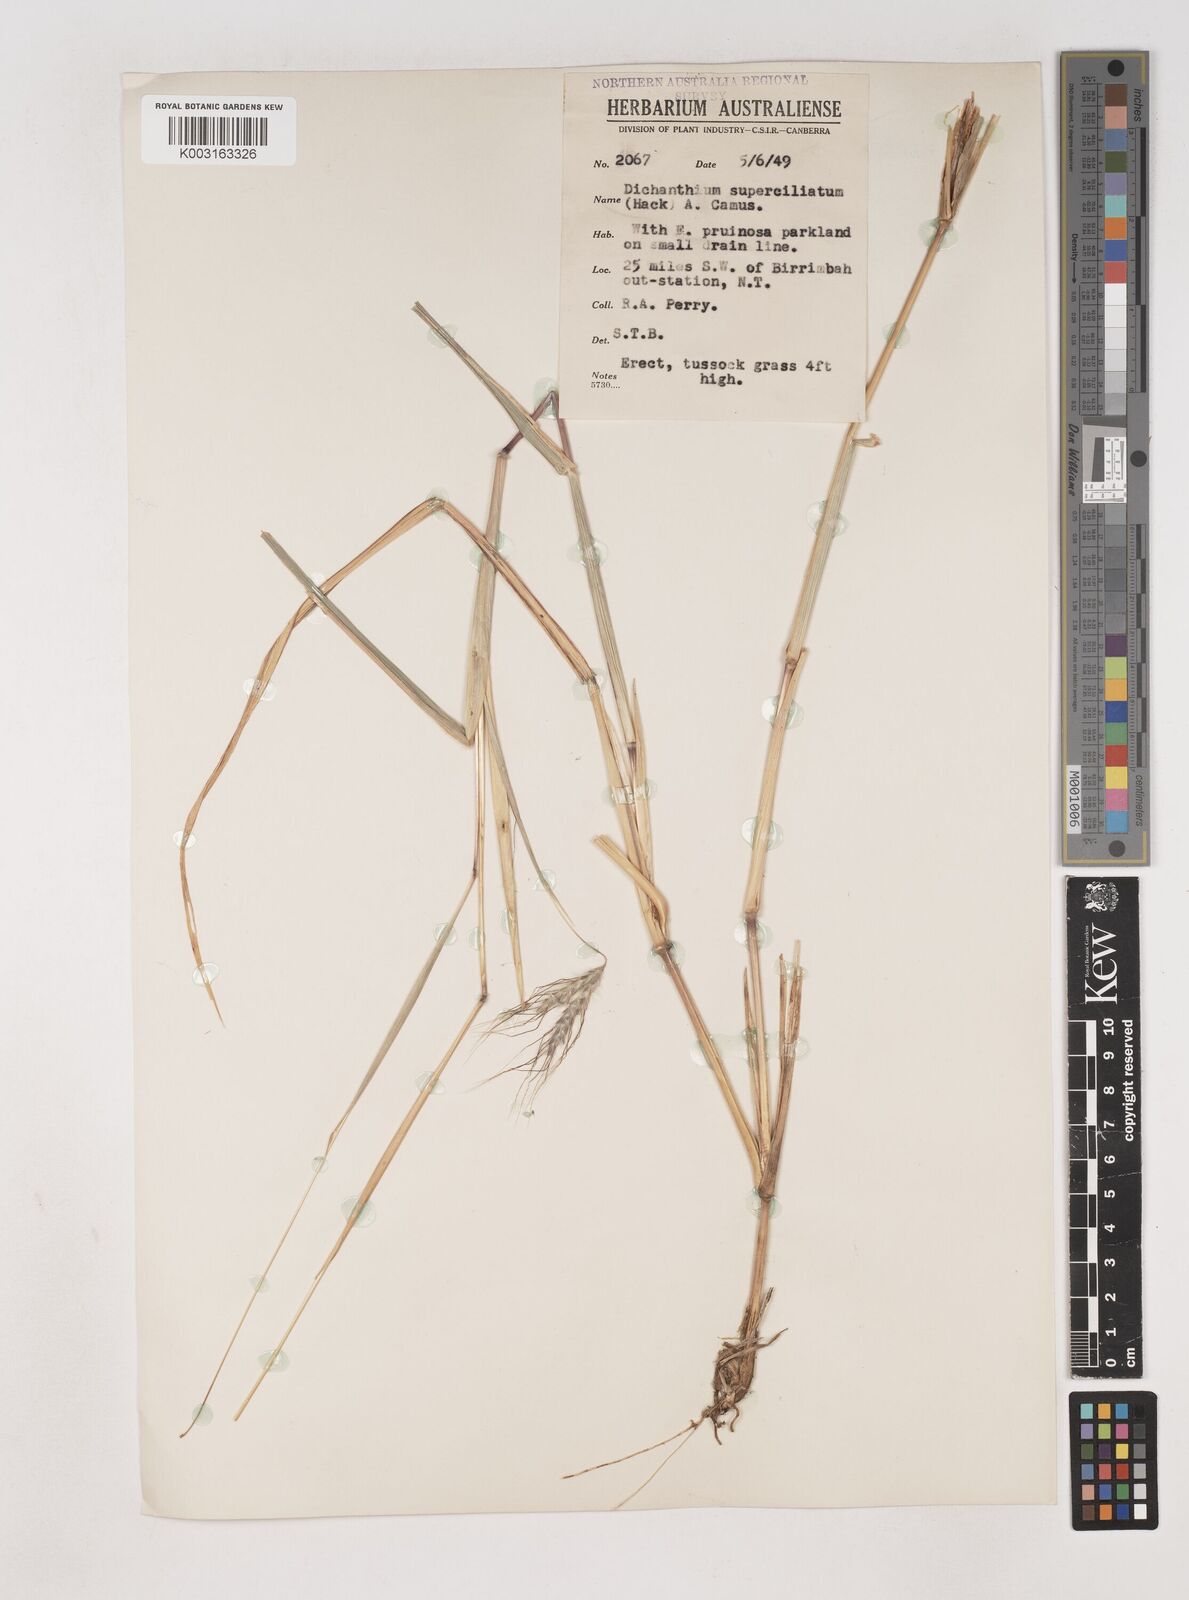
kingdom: Plantae
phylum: Tracheophyta
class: Liliopsida
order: Poales
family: Poaceae
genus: Dichanthium
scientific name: Dichanthium sericeum
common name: Silky bluestem
